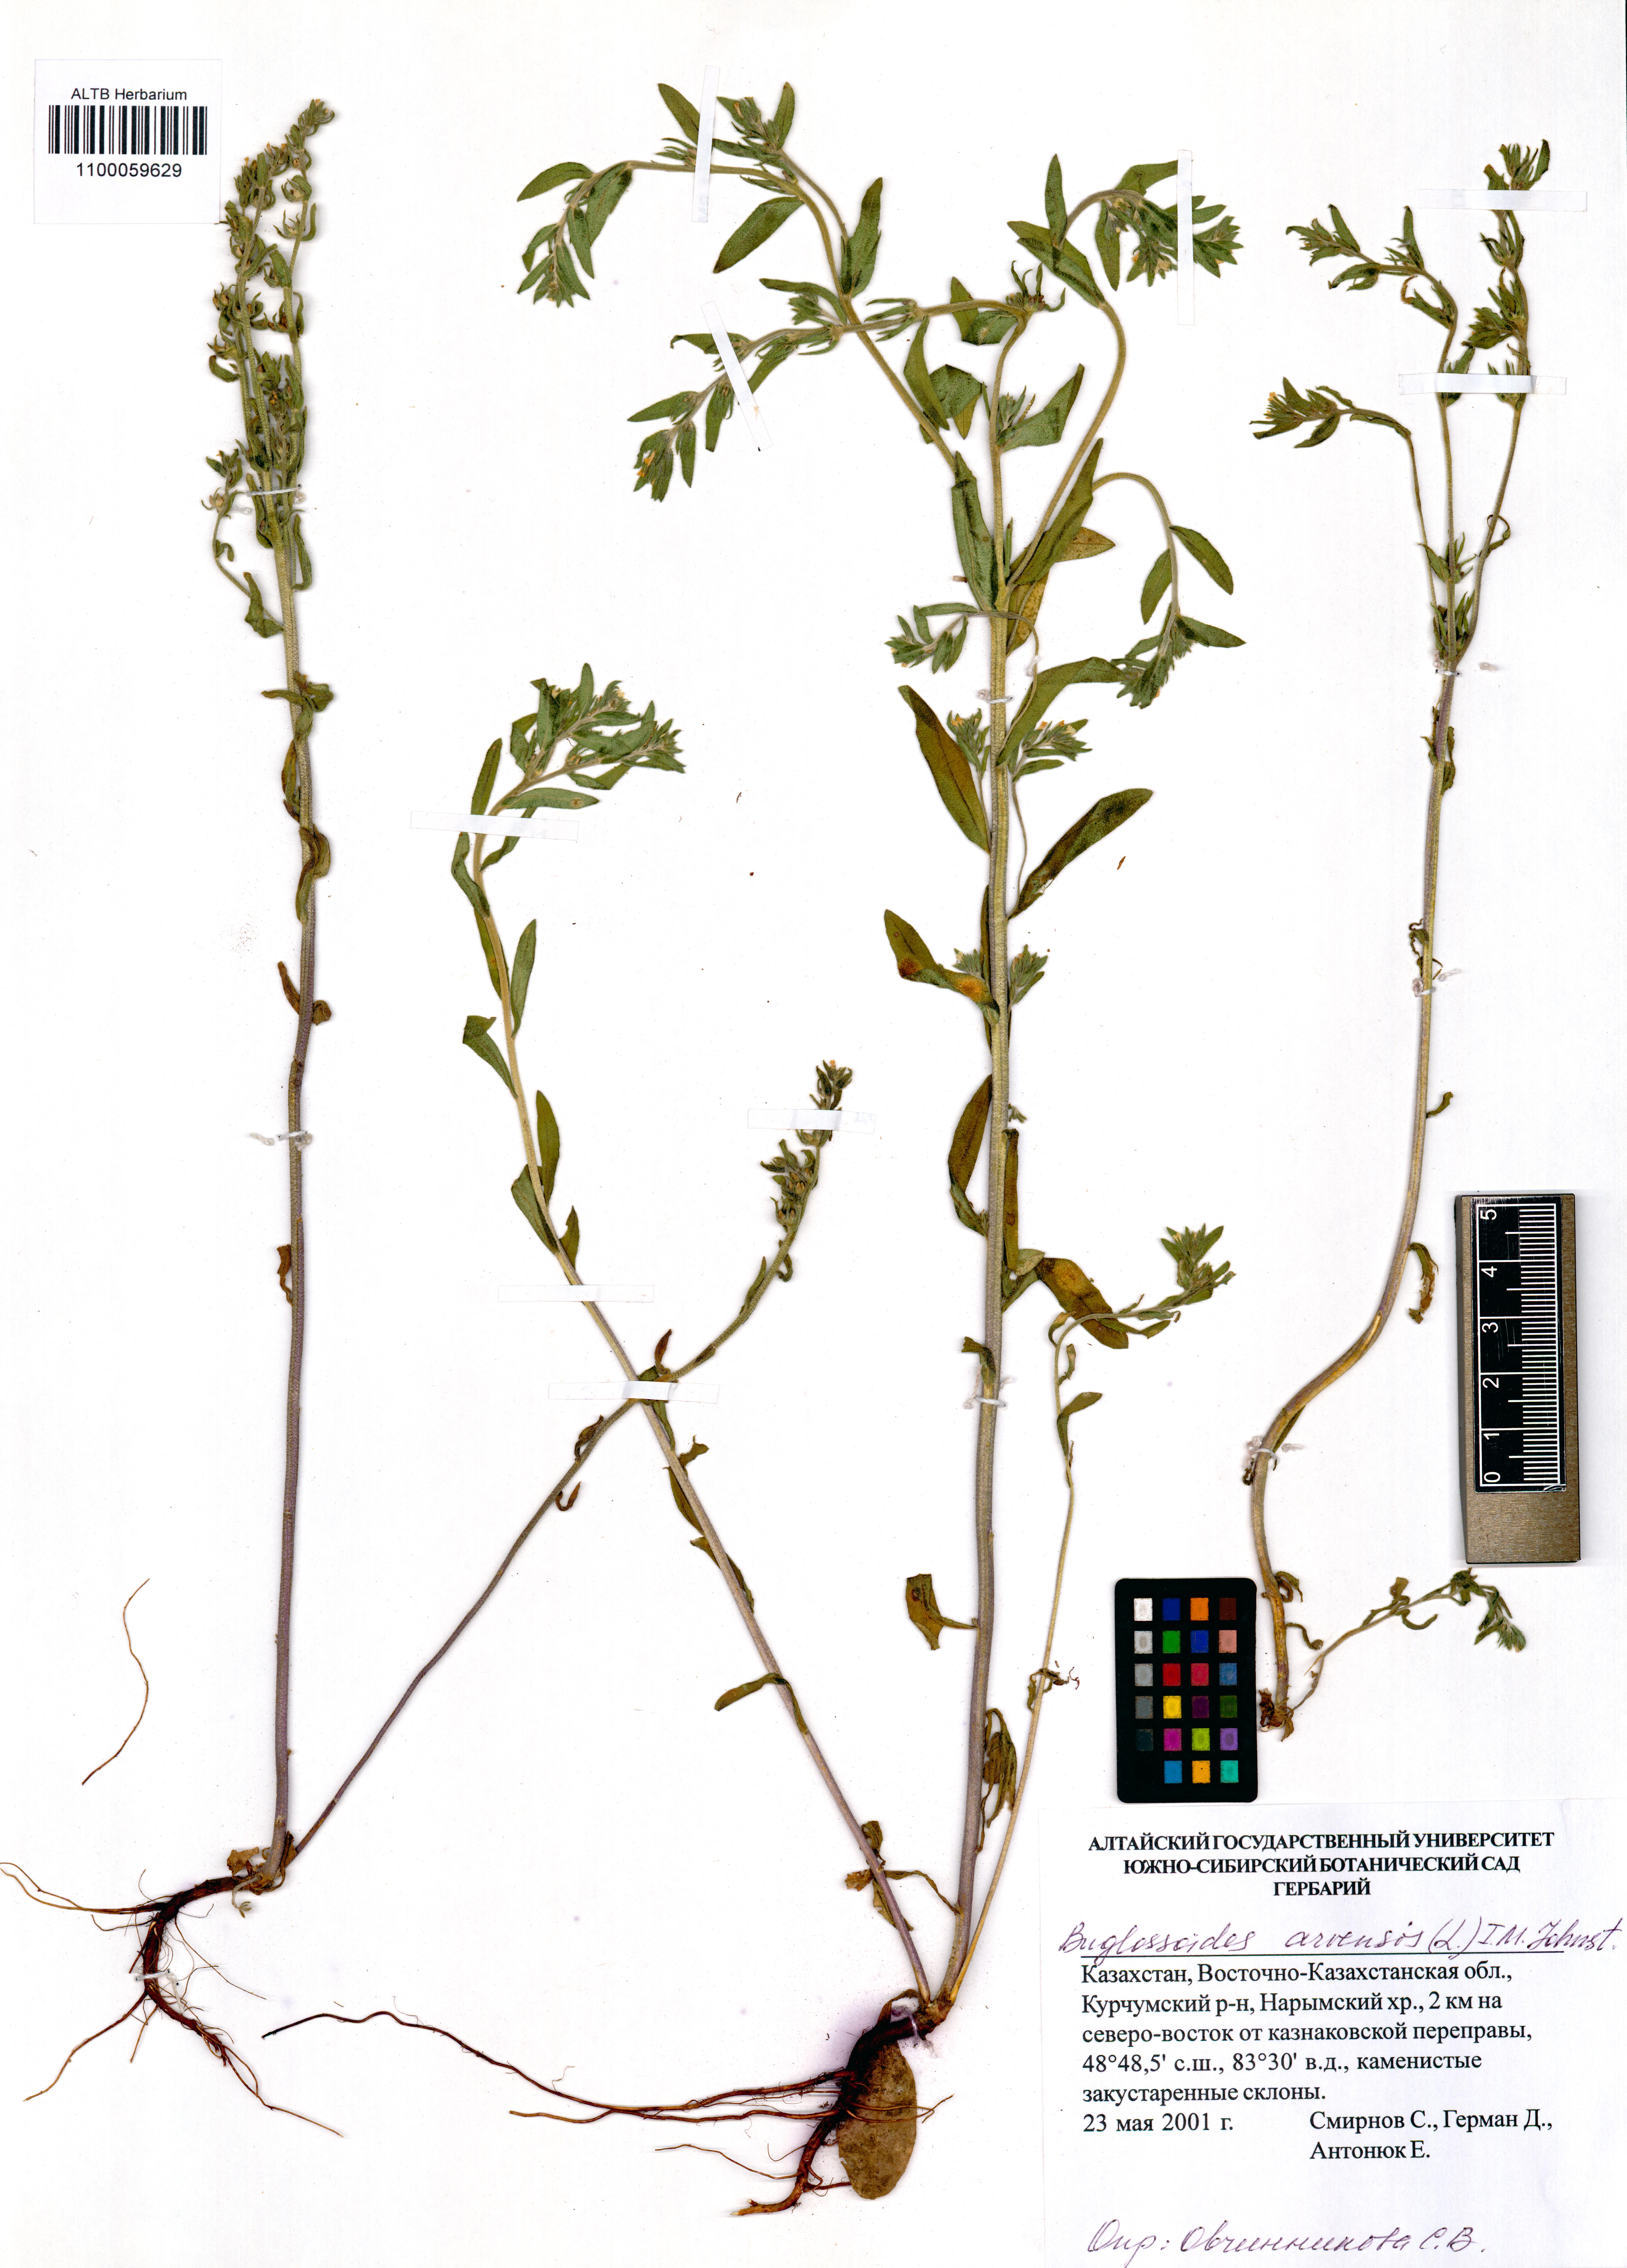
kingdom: Plantae
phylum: Tracheophyta
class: Magnoliopsida
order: Boraginales
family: Boraginaceae
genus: Buglossoides
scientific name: Buglossoides arvensis
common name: Corn gromwell
